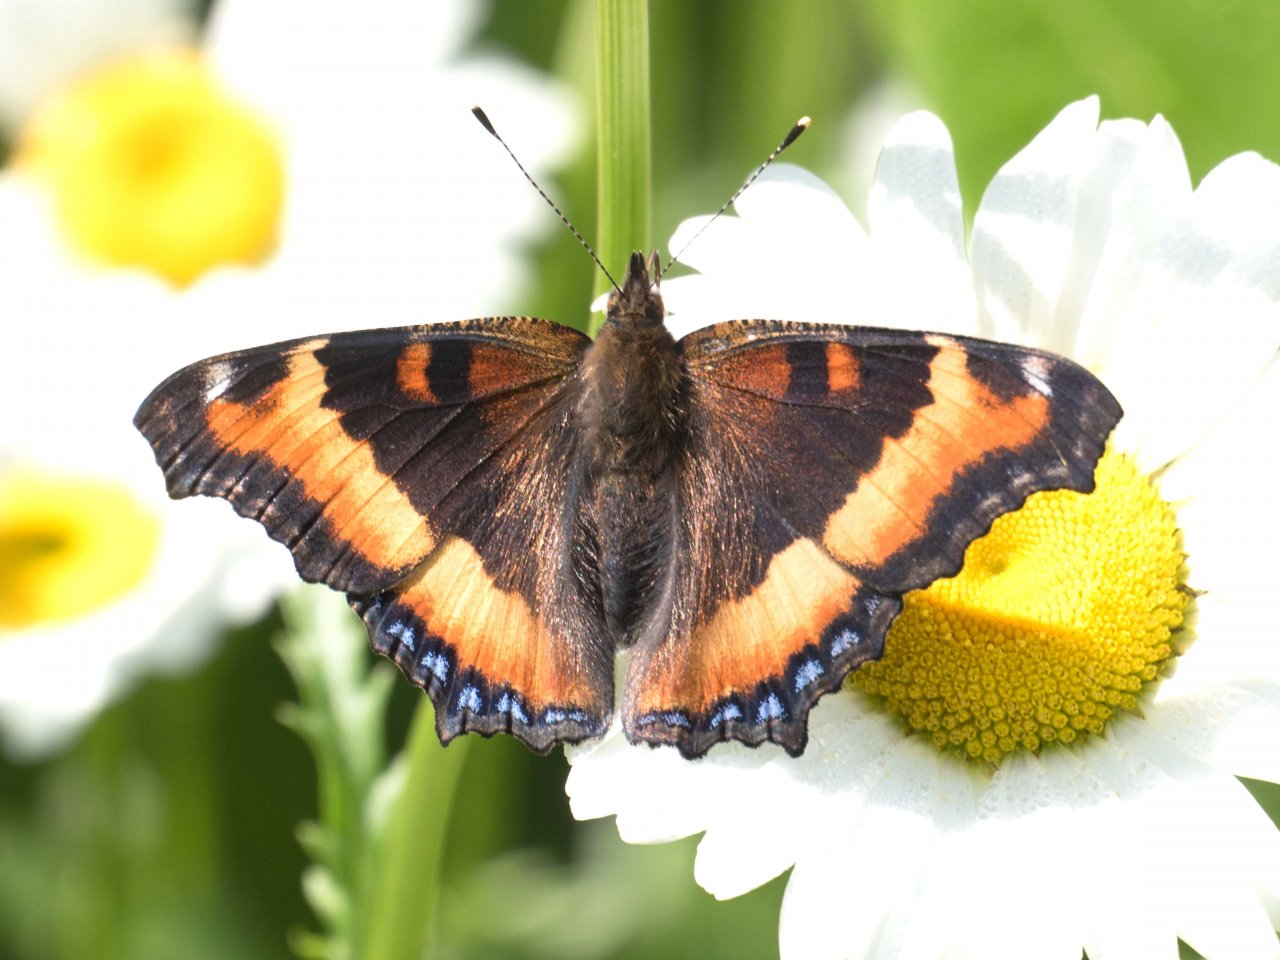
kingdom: Animalia
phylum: Arthropoda
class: Insecta
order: Lepidoptera
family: Nymphalidae
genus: Aglais
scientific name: Aglais milberti
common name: Milbert's Tortoiseshell
